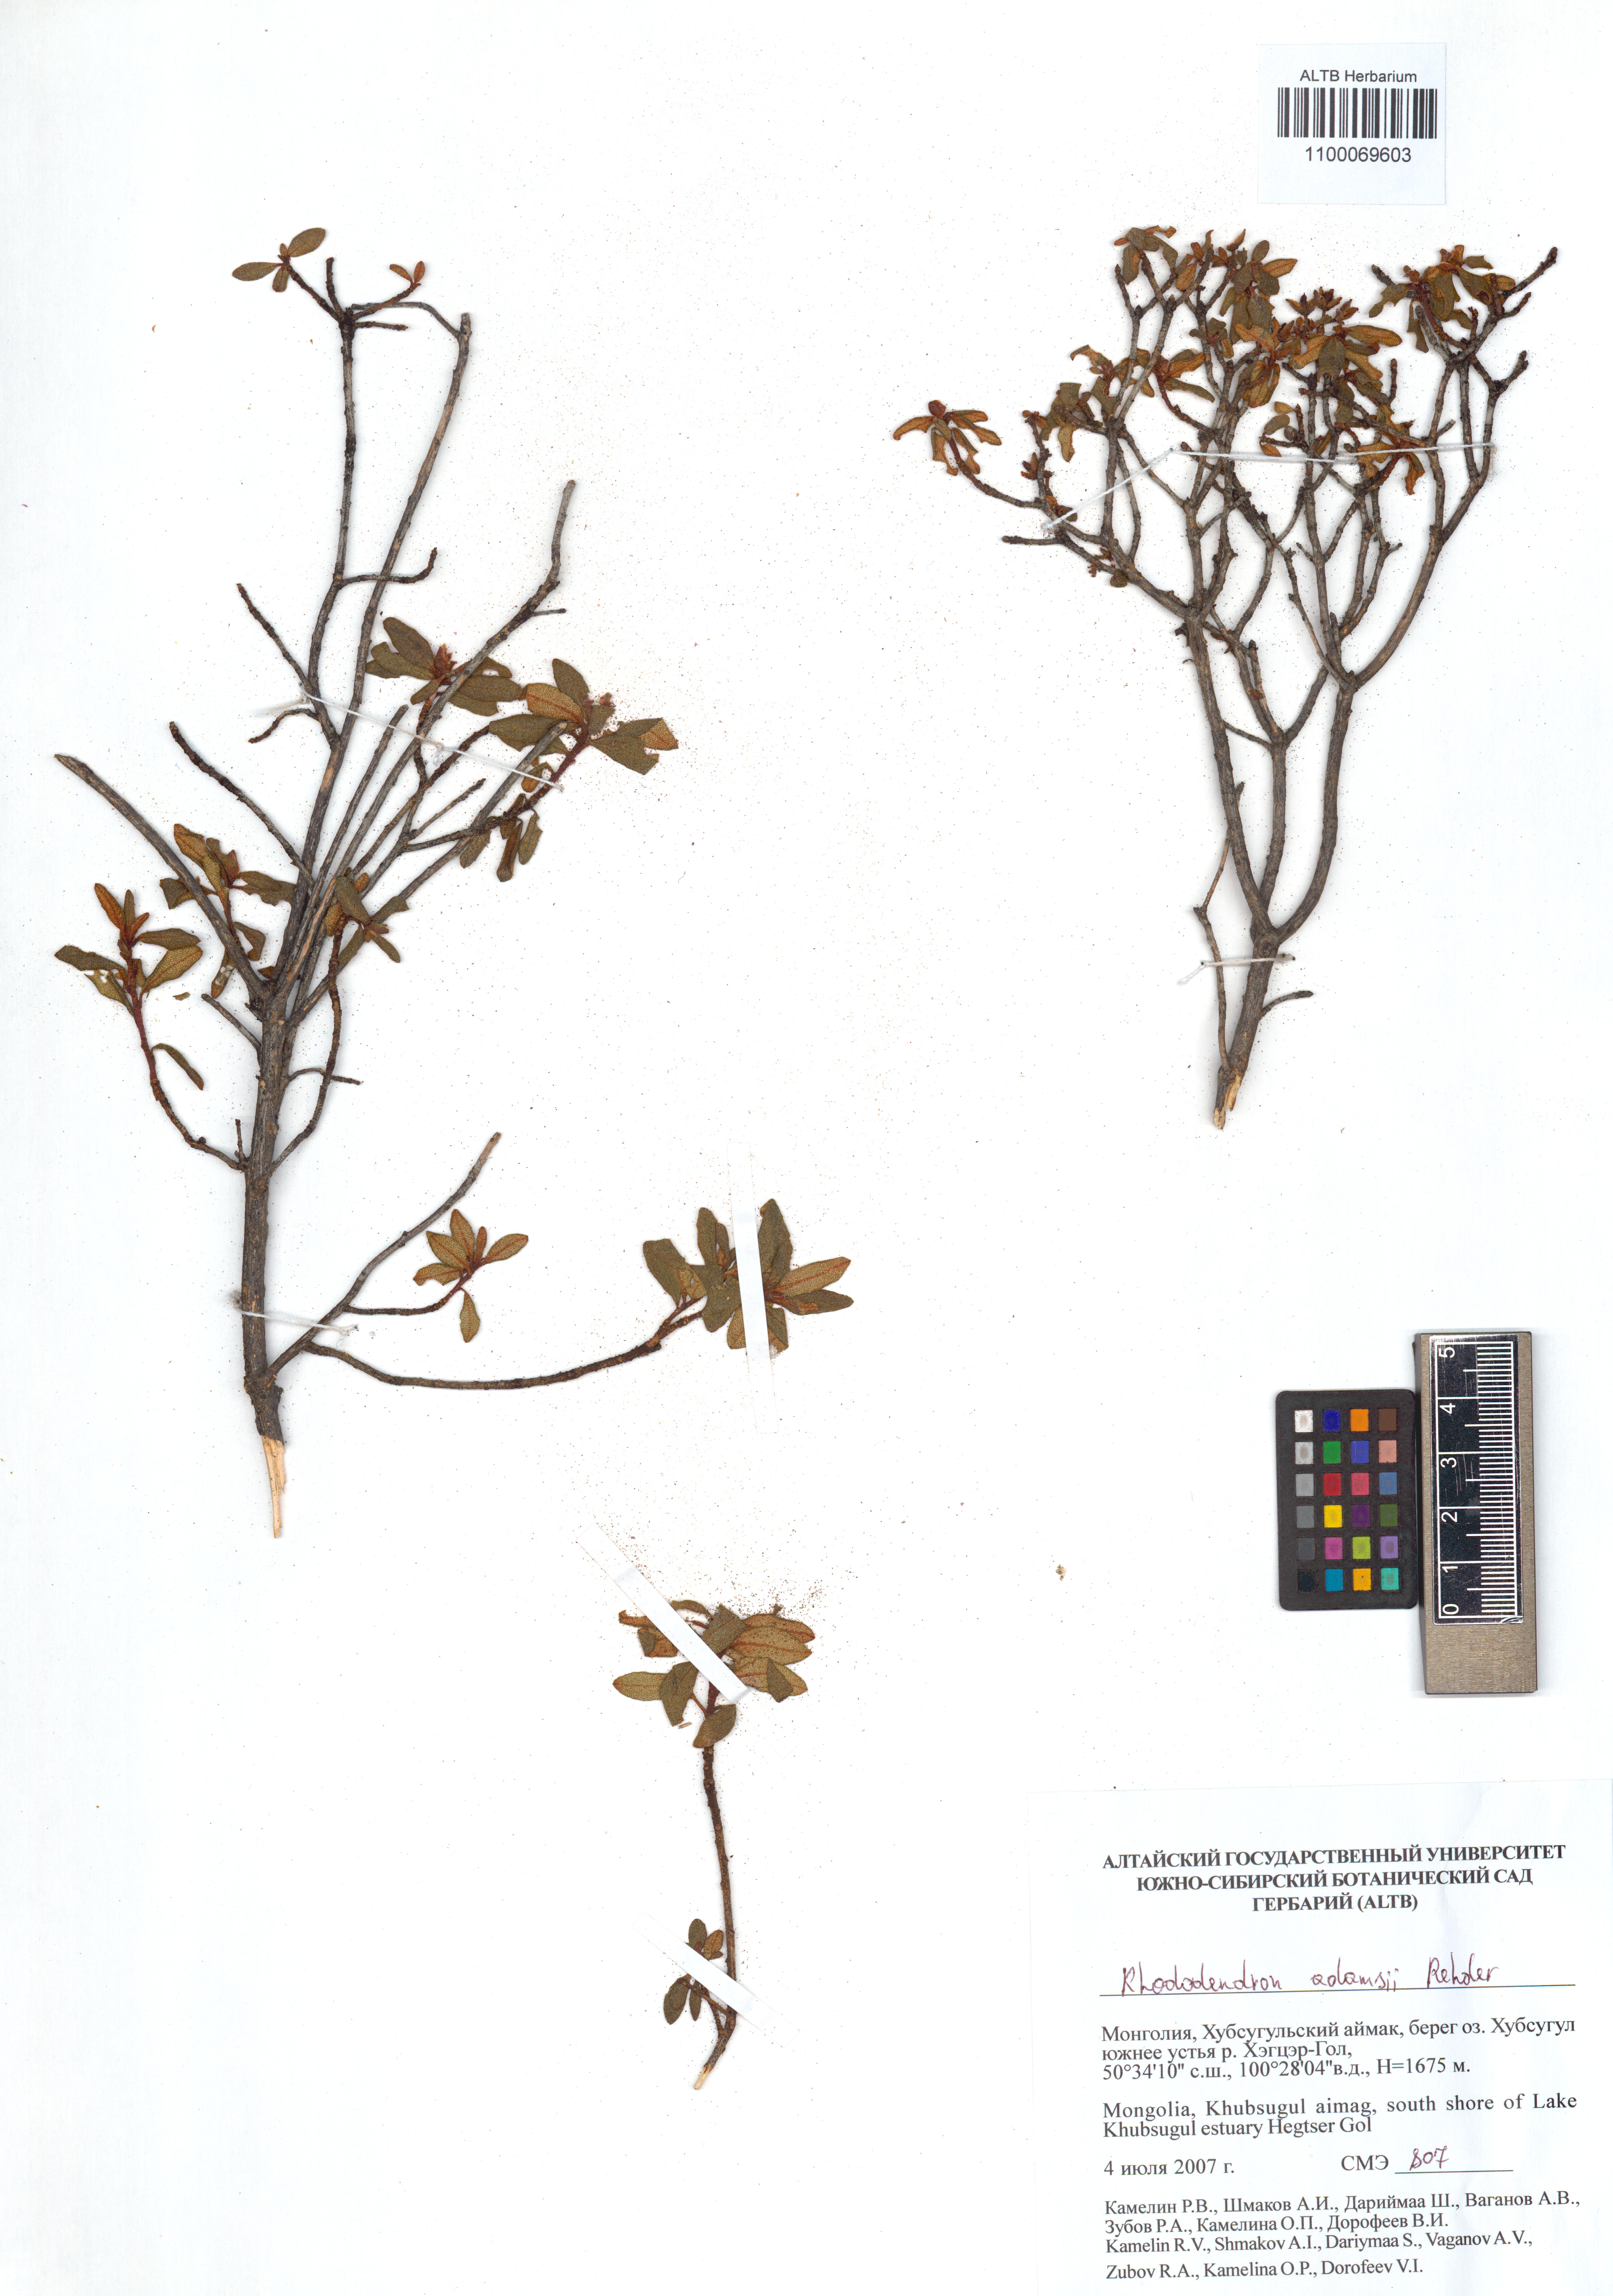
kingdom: Plantae
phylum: Tracheophyta
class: Magnoliopsida
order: Ericales
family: Ericaceae
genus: Rhododendron
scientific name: Rhododendron adamsii
